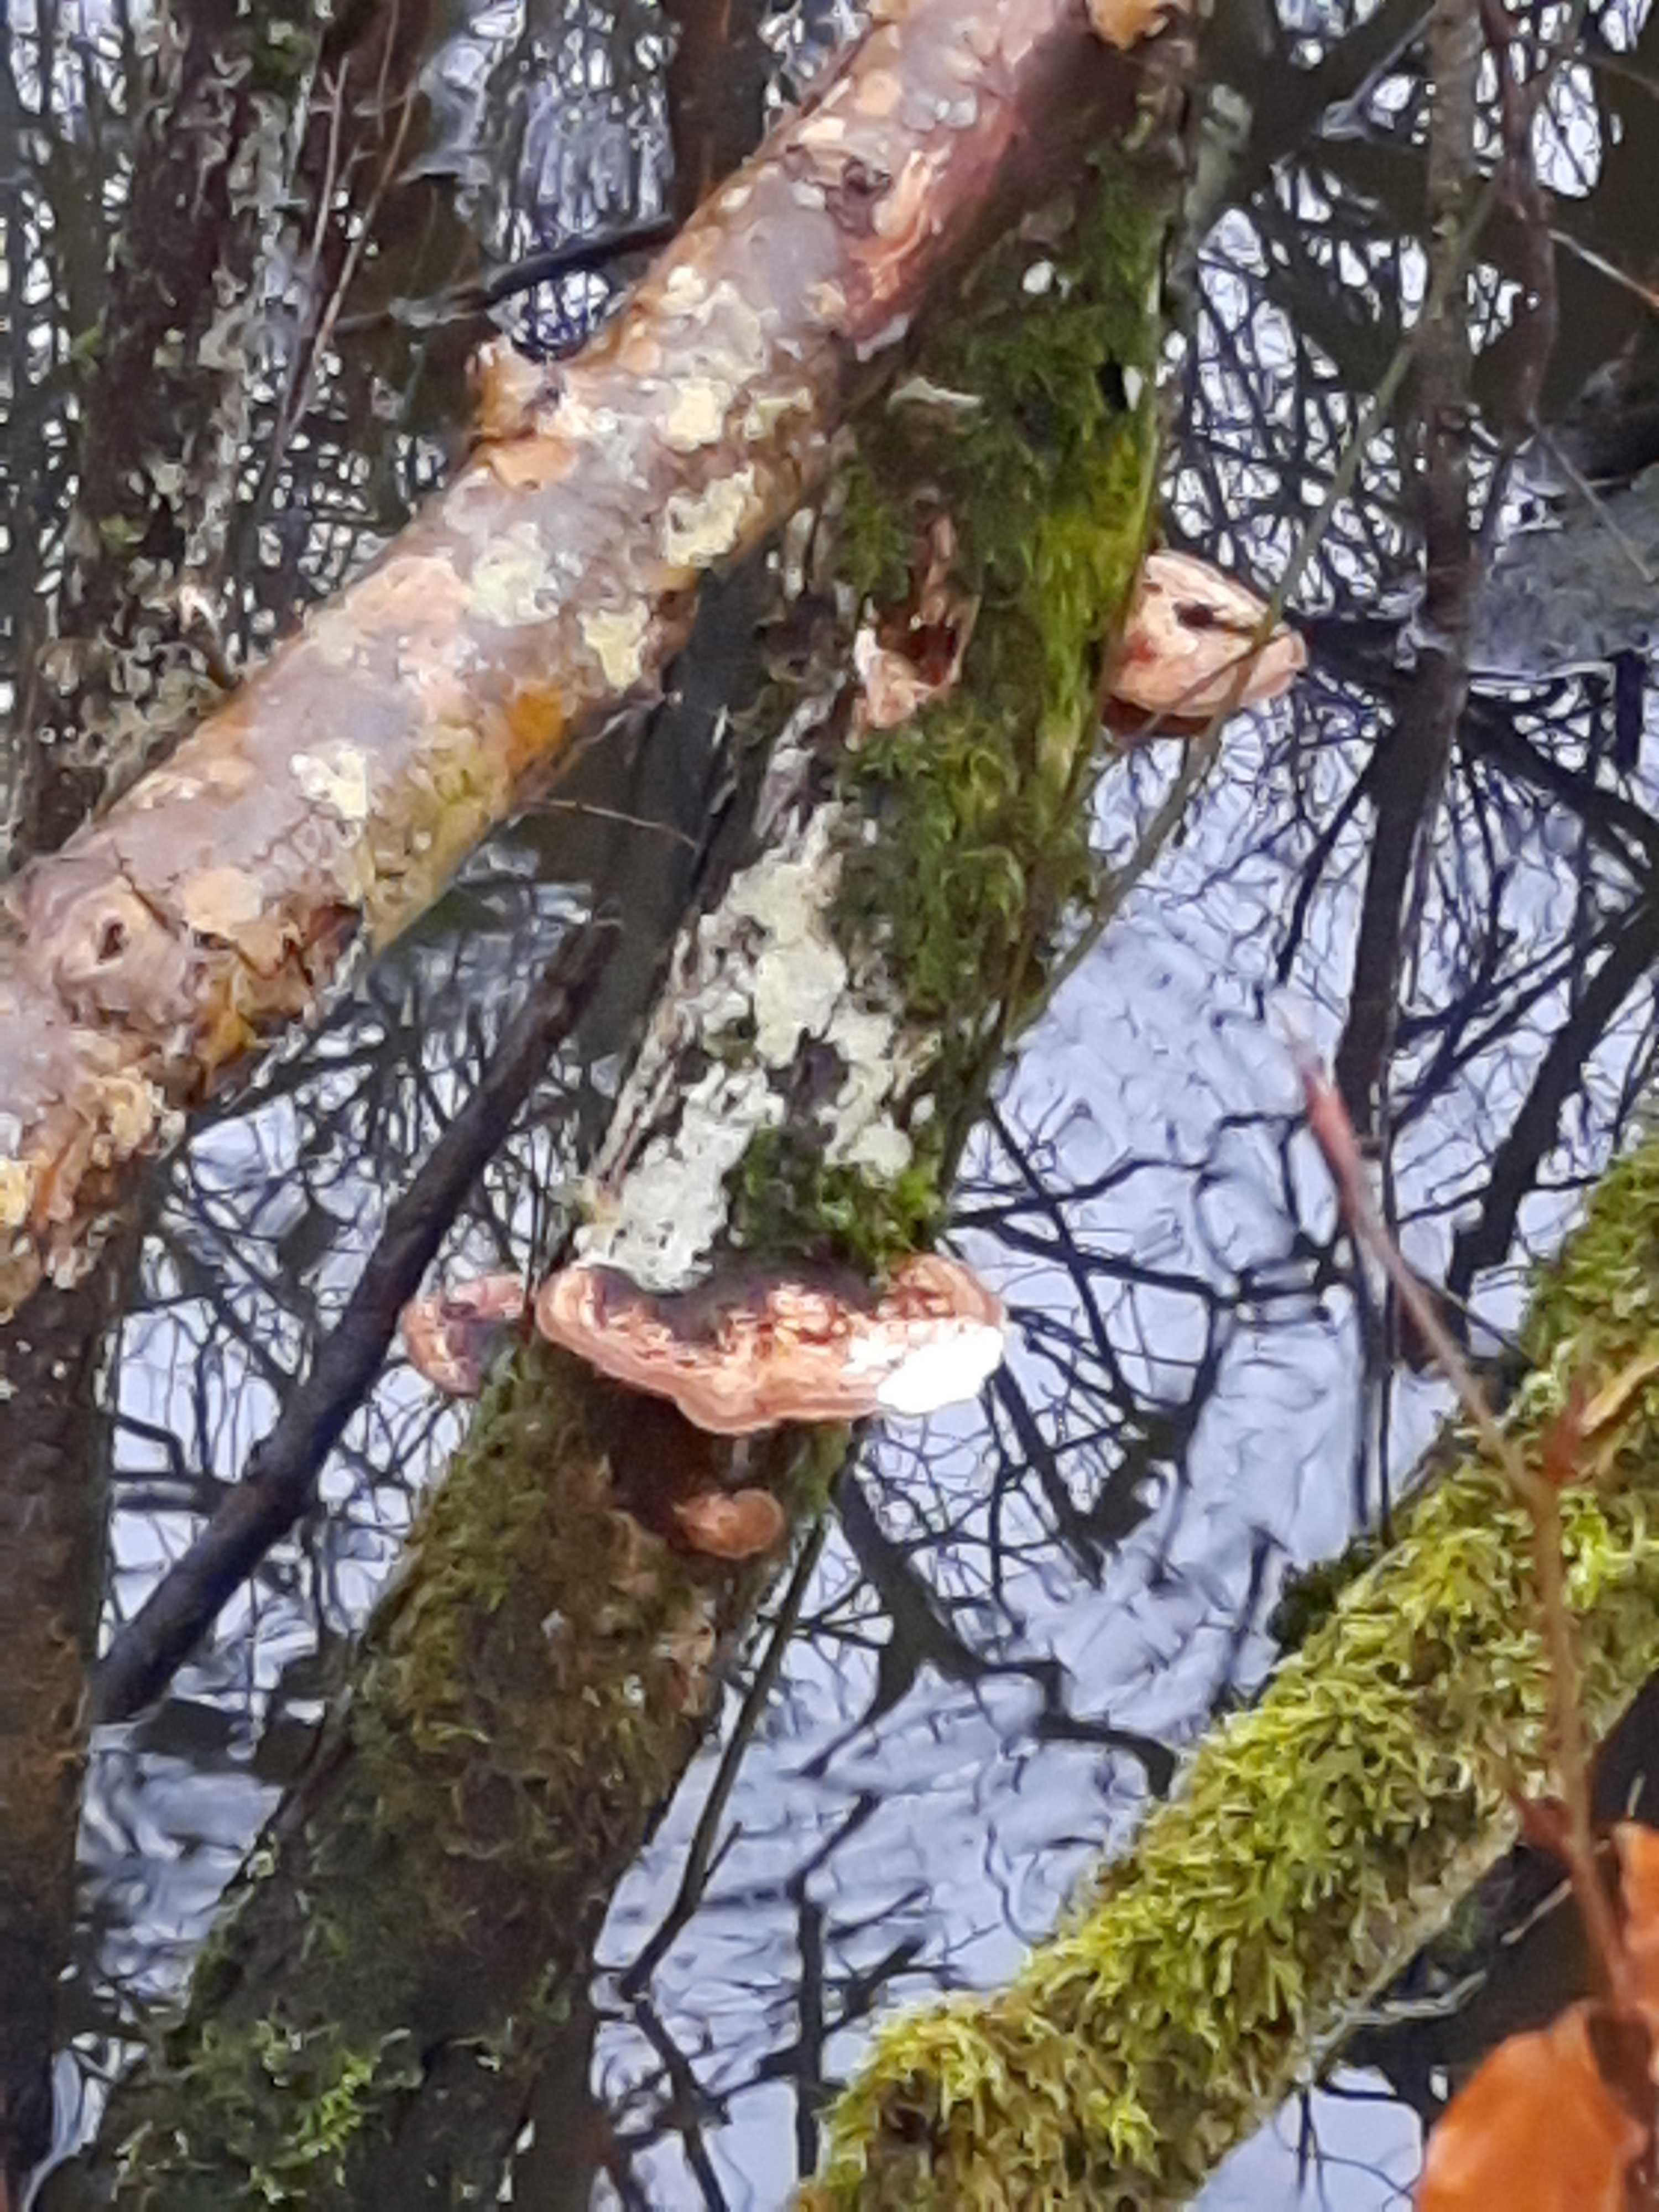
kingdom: Fungi
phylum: Basidiomycota
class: Agaricomycetes
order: Polyporales
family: Polyporaceae
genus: Daedaleopsis
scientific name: Daedaleopsis confragosa
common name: rødmende læderporesvamp
